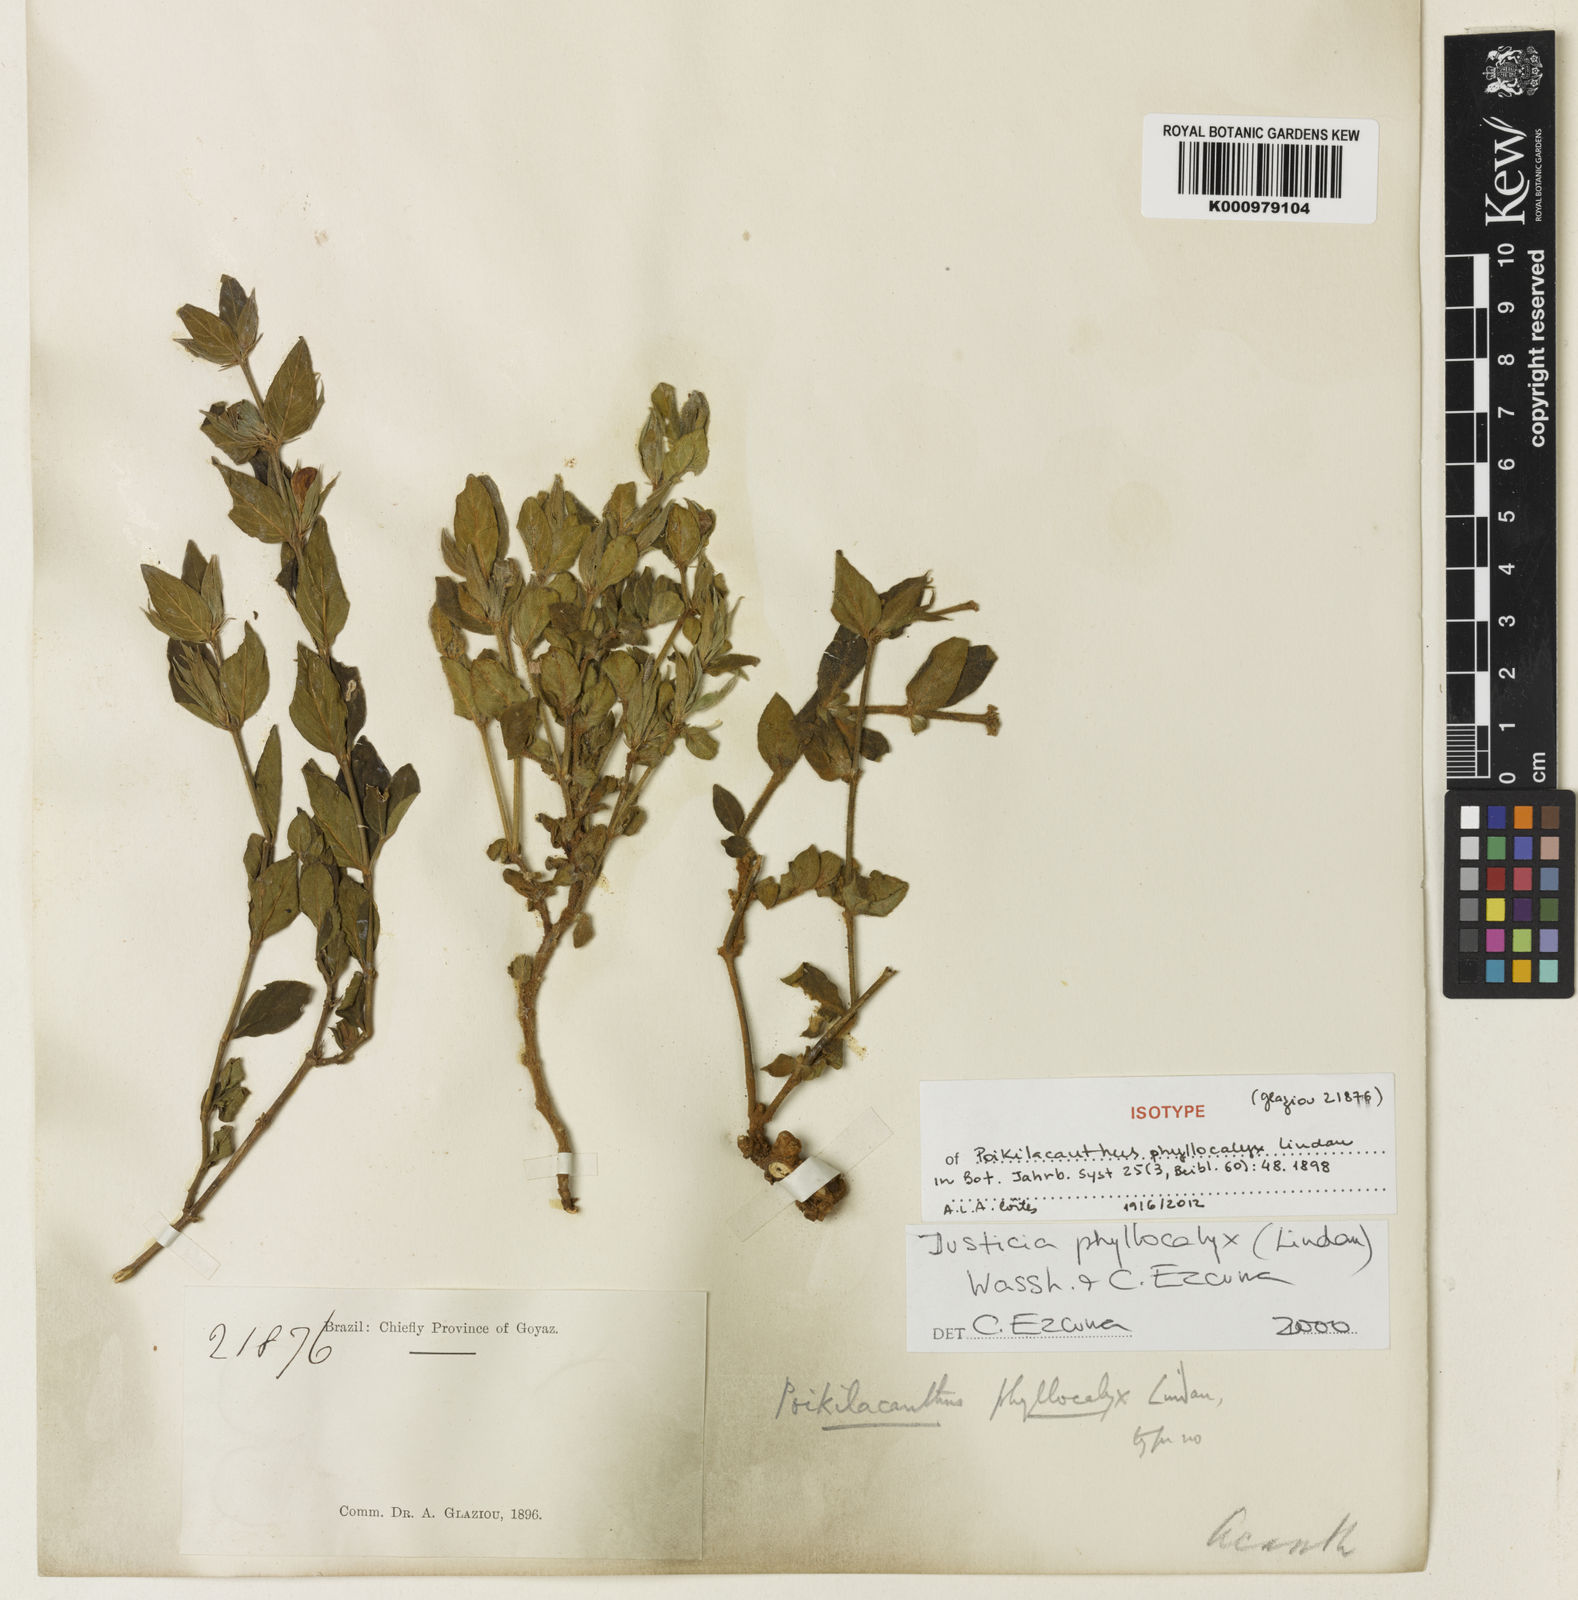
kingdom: Plantae
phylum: Tracheophyta
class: Magnoliopsida
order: Lamiales
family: Acanthaceae
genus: Justicia
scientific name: Justicia phyllocalyx
